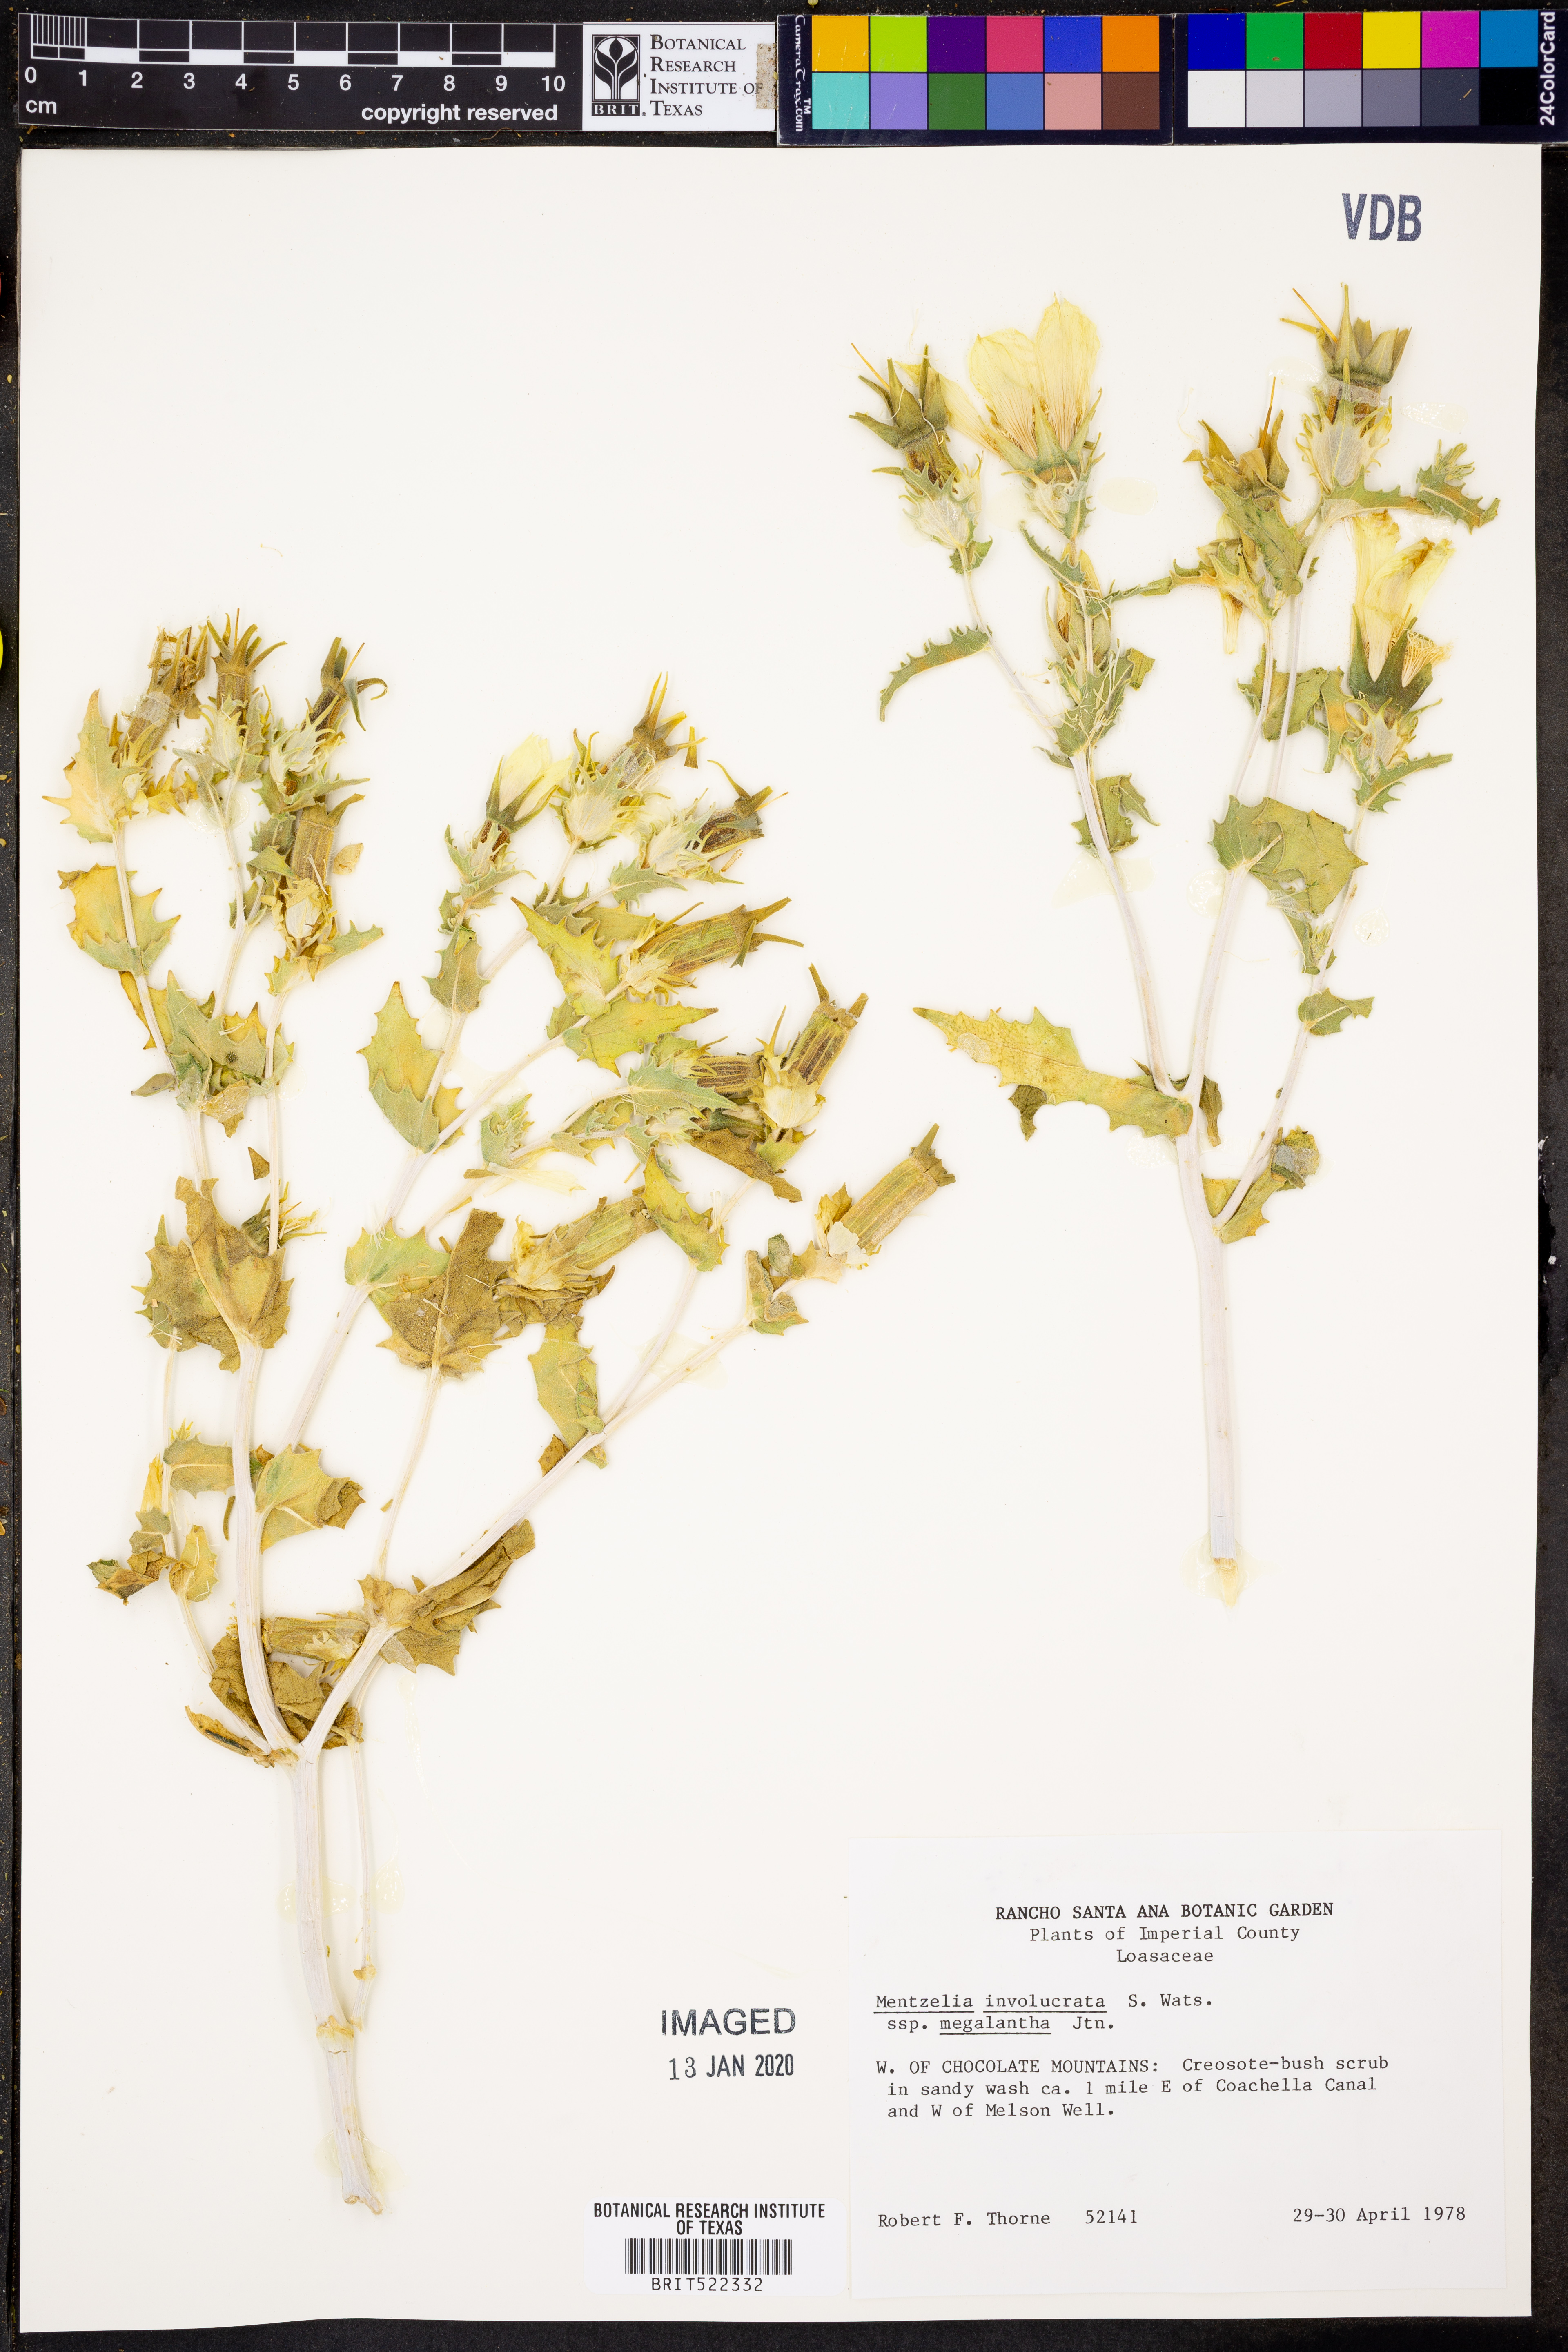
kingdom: Plantae
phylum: Tracheophyta
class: Magnoliopsida
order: Cornales
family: Loasaceae
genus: Mentzelia
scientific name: Mentzelia involucrata
